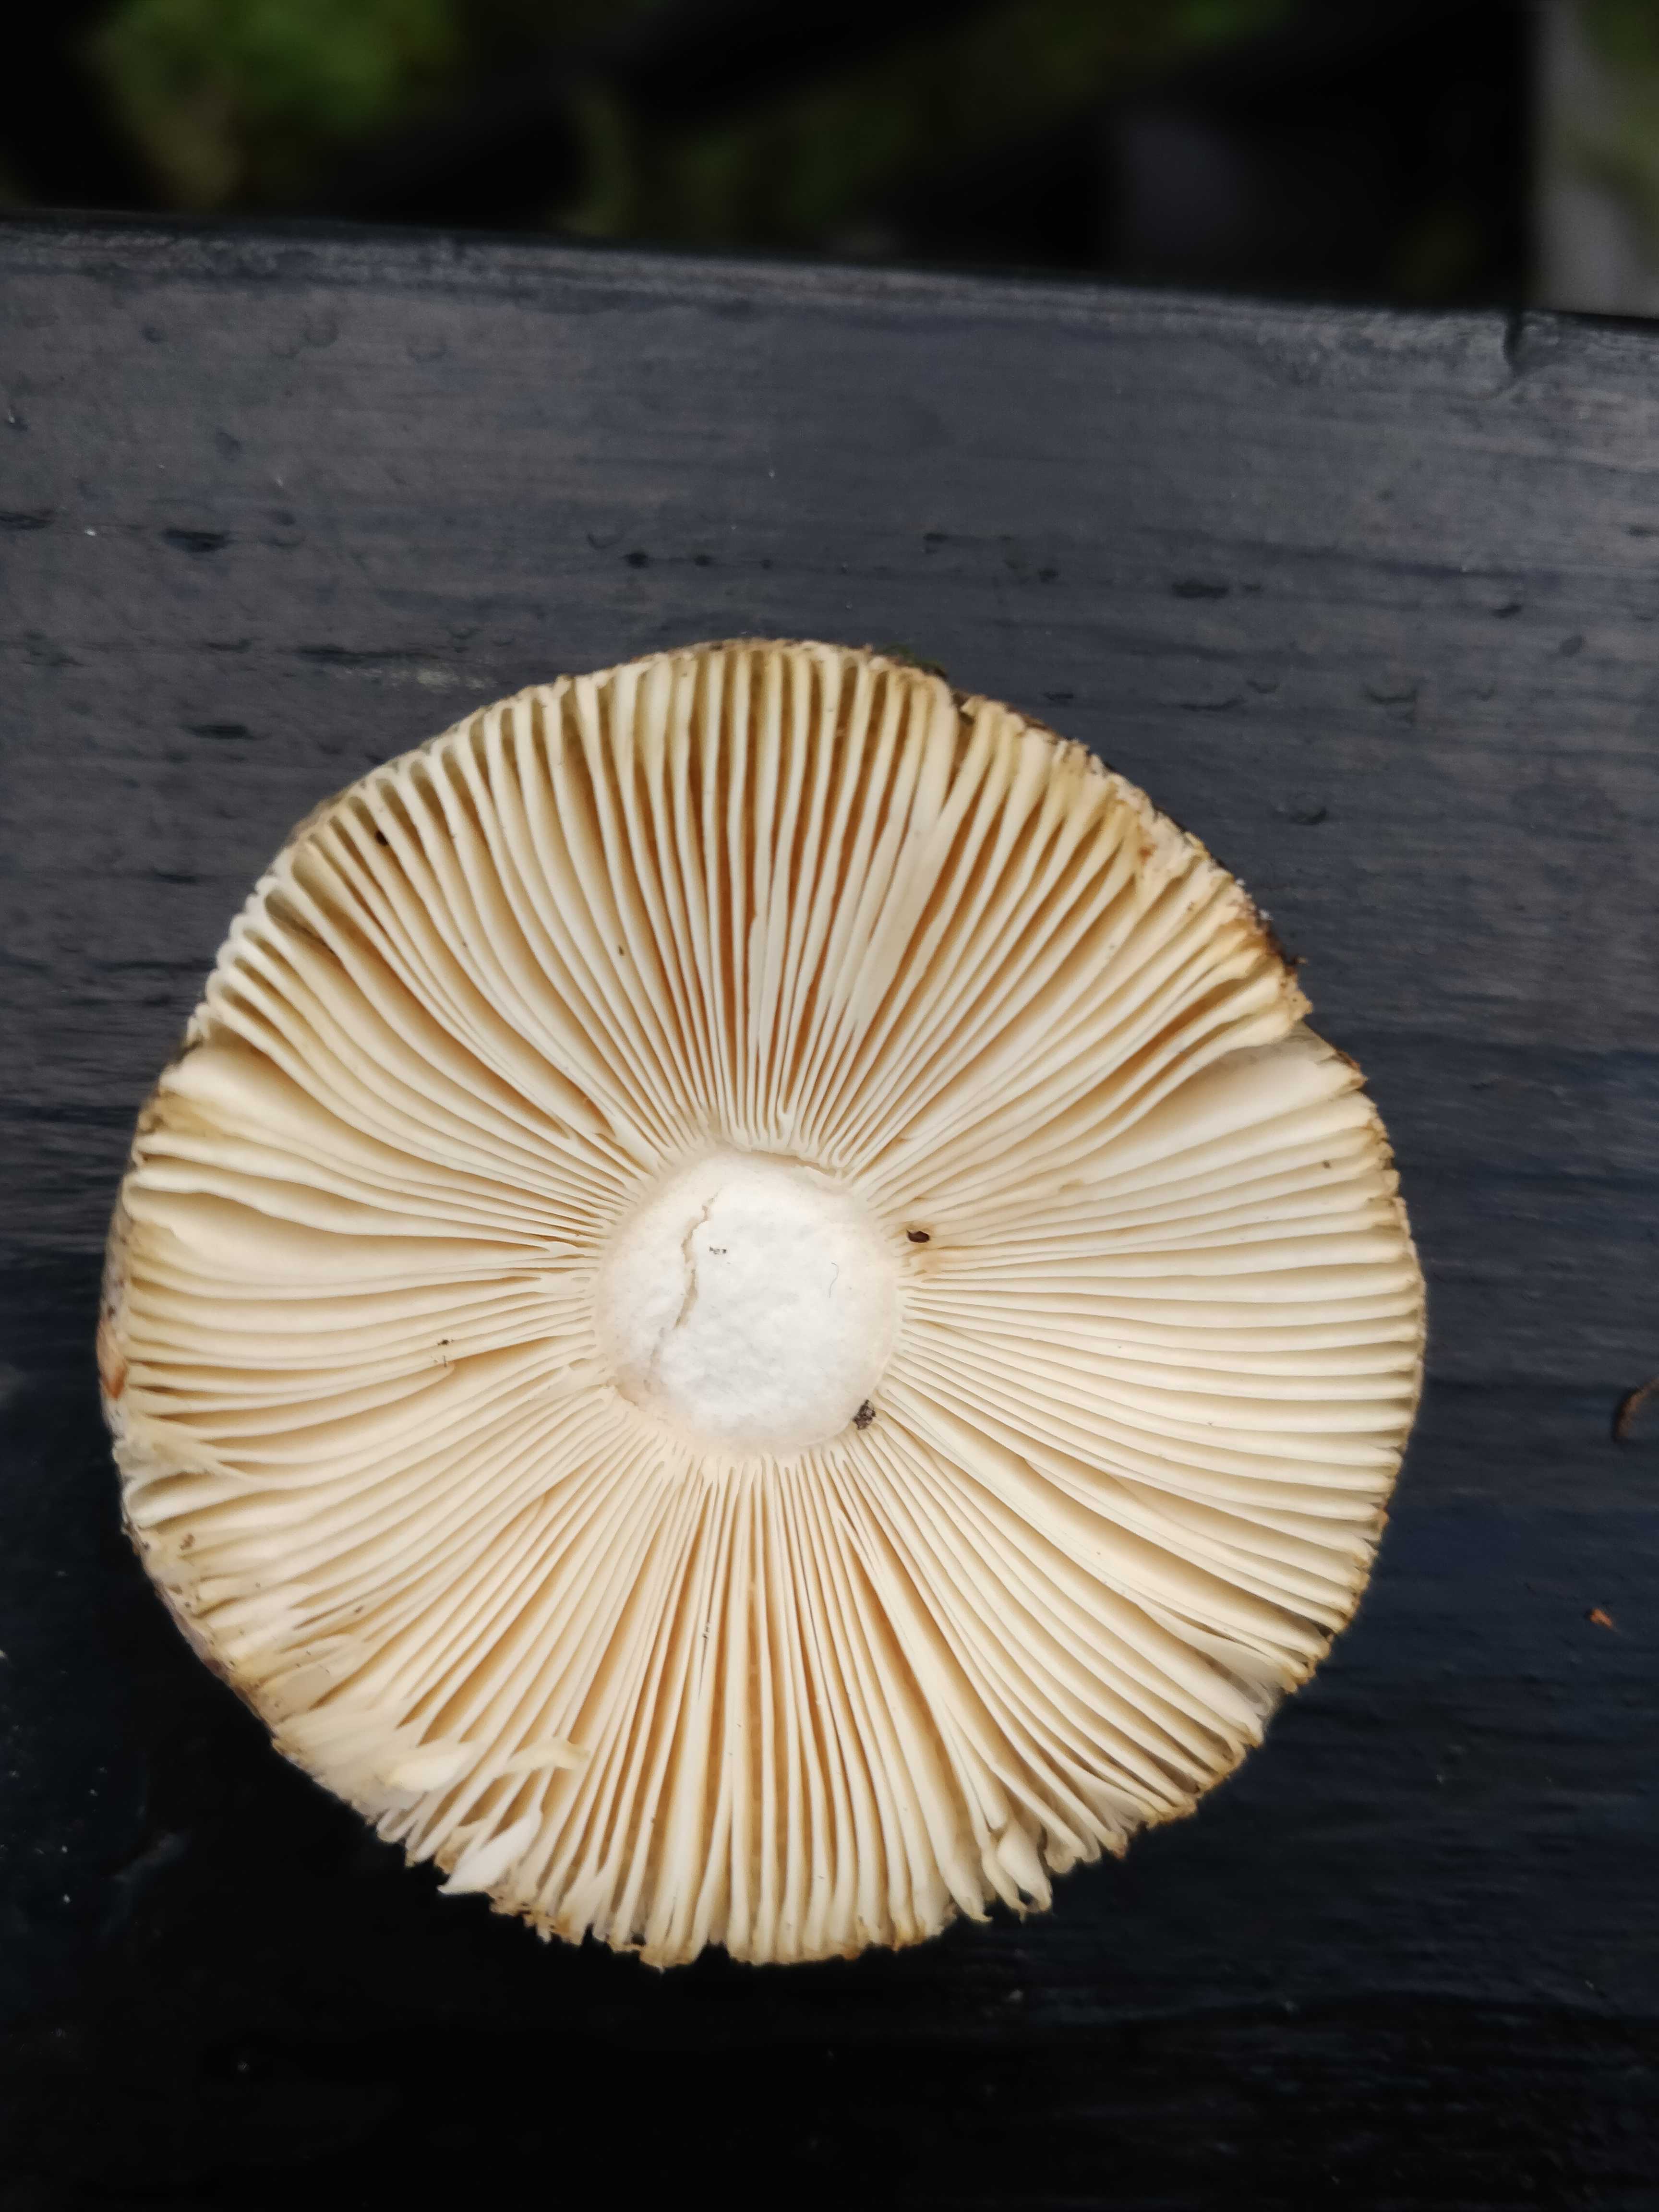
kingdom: Fungi
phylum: Basidiomycota
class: Agaricomycetes
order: Russulales
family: Russulaceae
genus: Russula
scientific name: Russula
